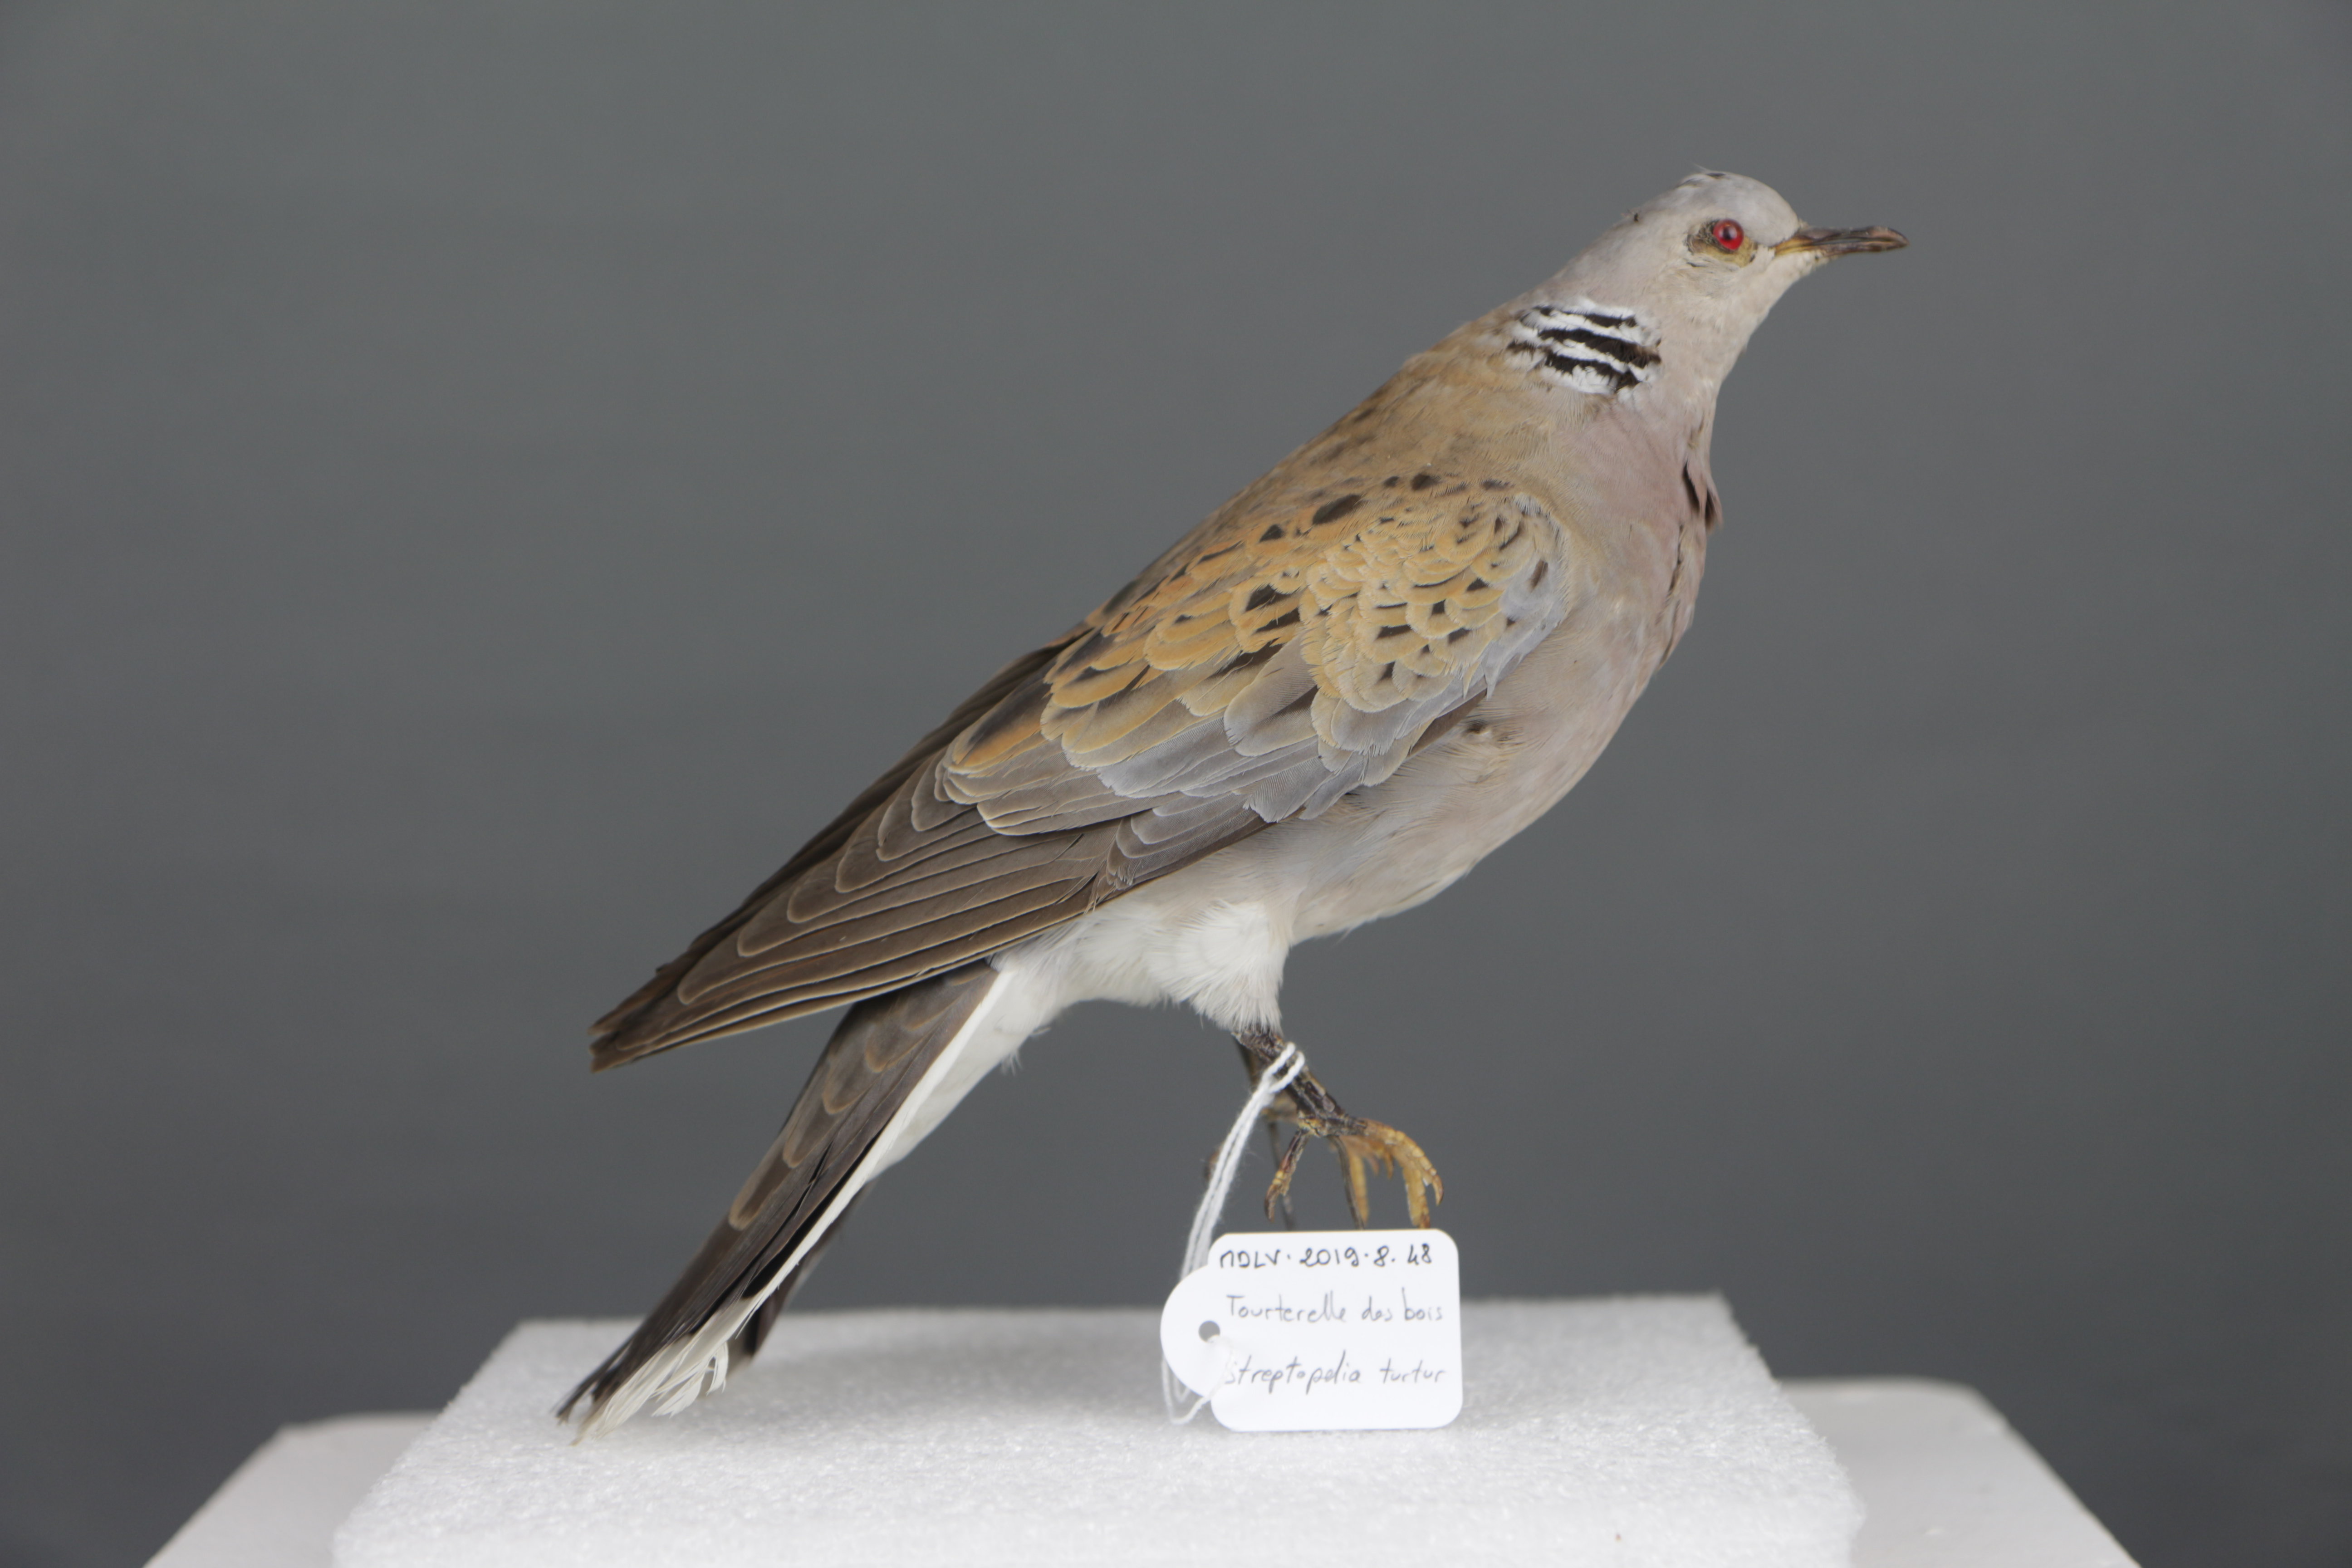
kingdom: Animalia
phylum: Chordata
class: Aves
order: Columbiformes
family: Columbidae
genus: Streptopelia
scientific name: Streptopelia turtur
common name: European turtle dove
